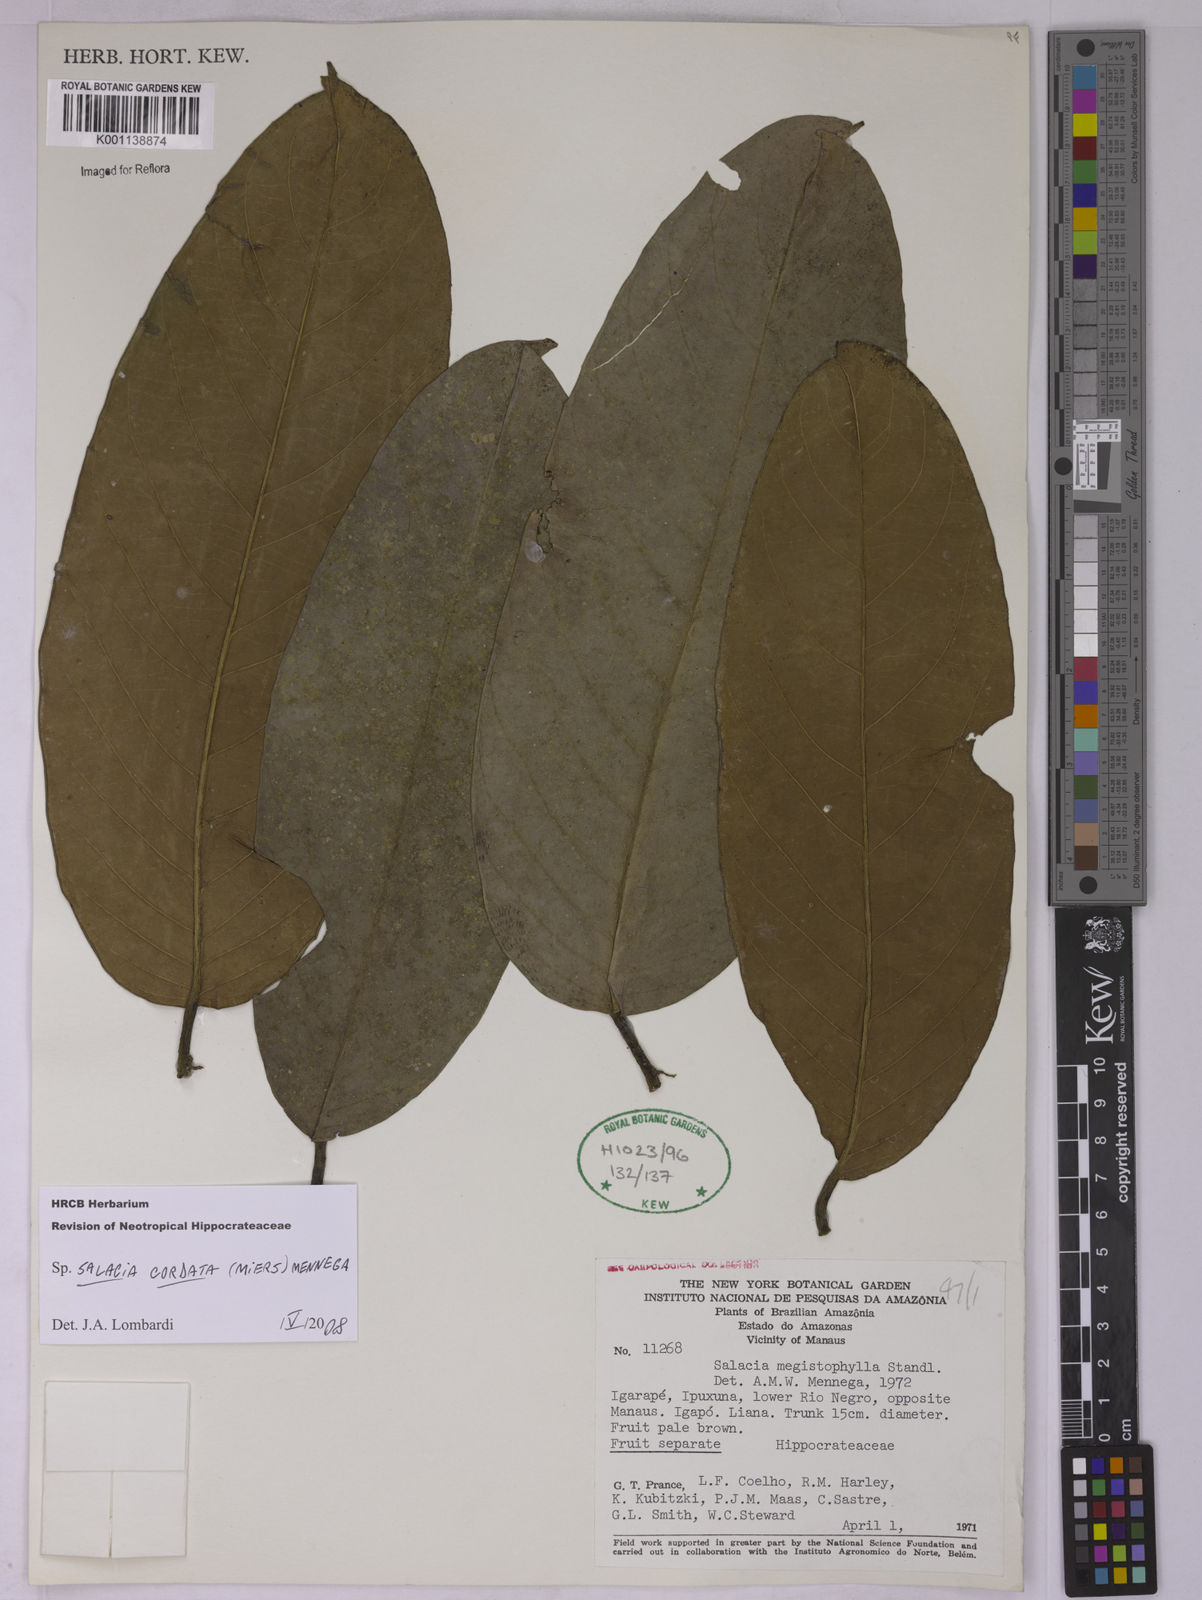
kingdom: Plantae
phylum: Tracheophyta
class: Magnoliopsida
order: Celastrales
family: Celastraceae
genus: Salacia
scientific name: Salacia cordata
